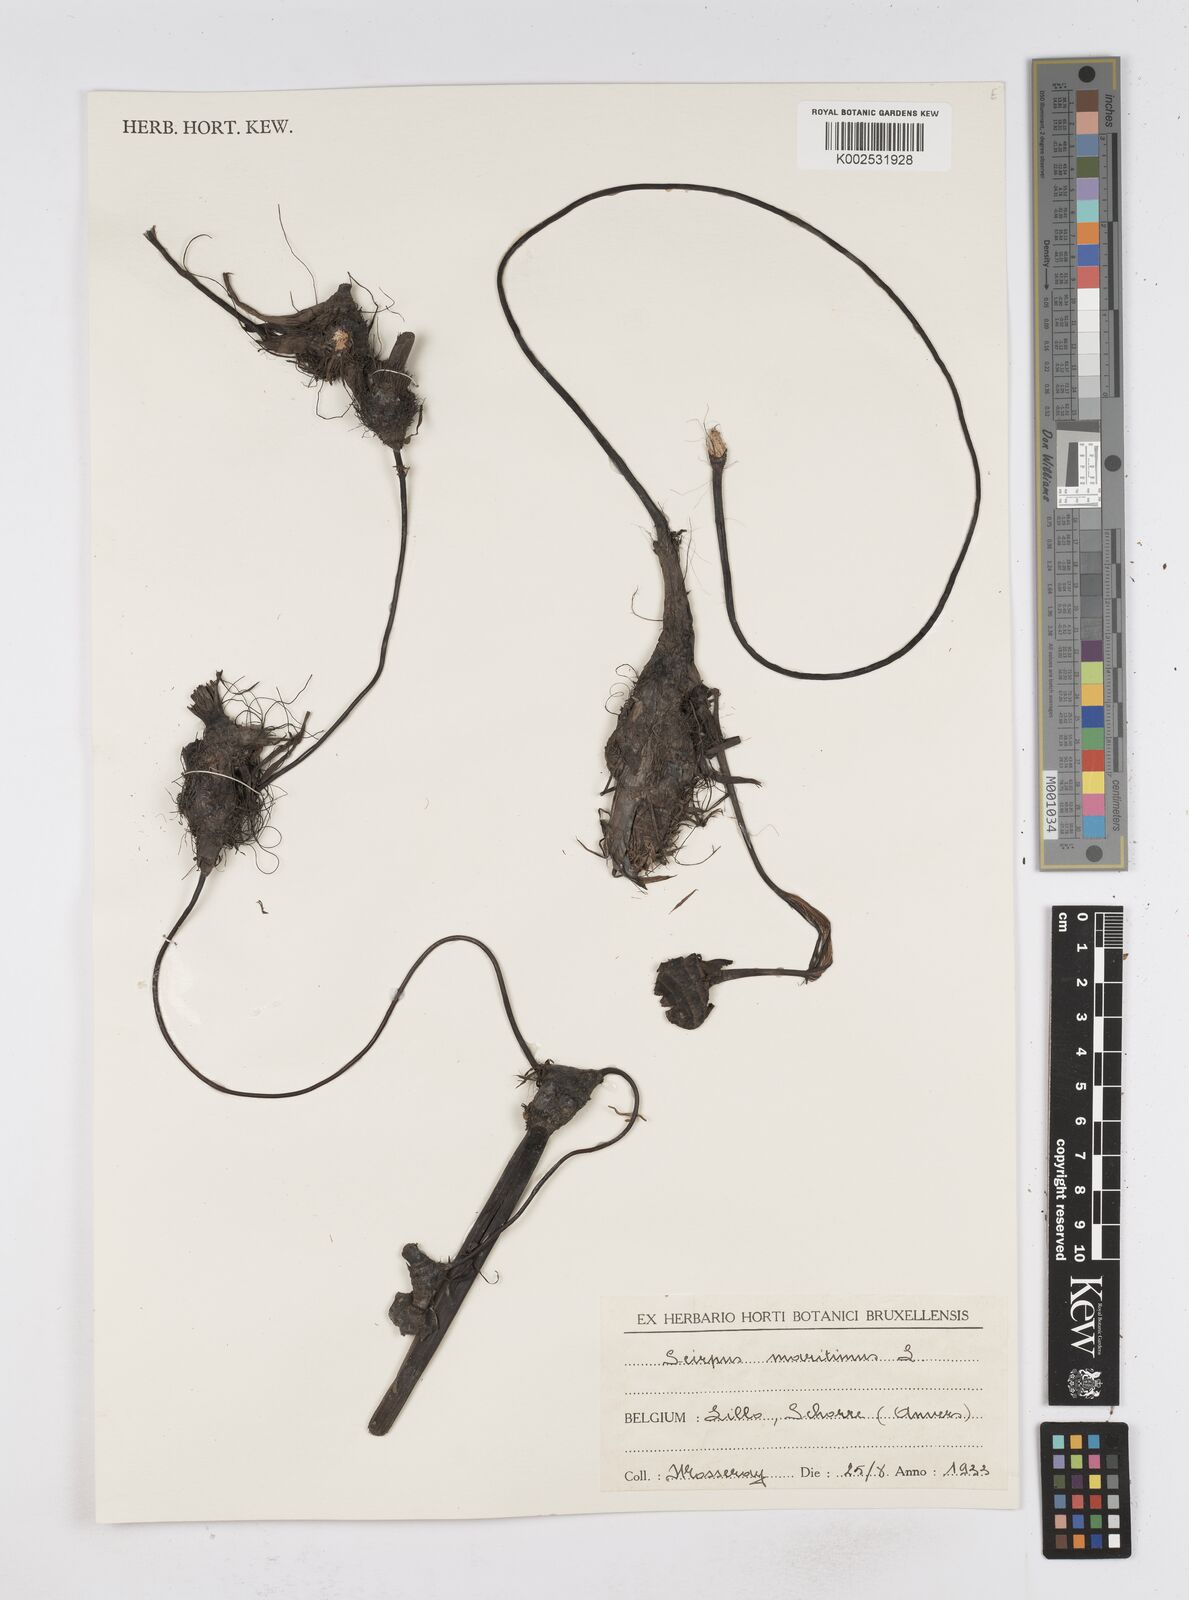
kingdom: Plantae
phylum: Tracheophyta
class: Liliopsida
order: Poales
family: Cyperaceae
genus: Bolboschoenus
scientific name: Bolboschoenus maritimus
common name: Sea club-rush
